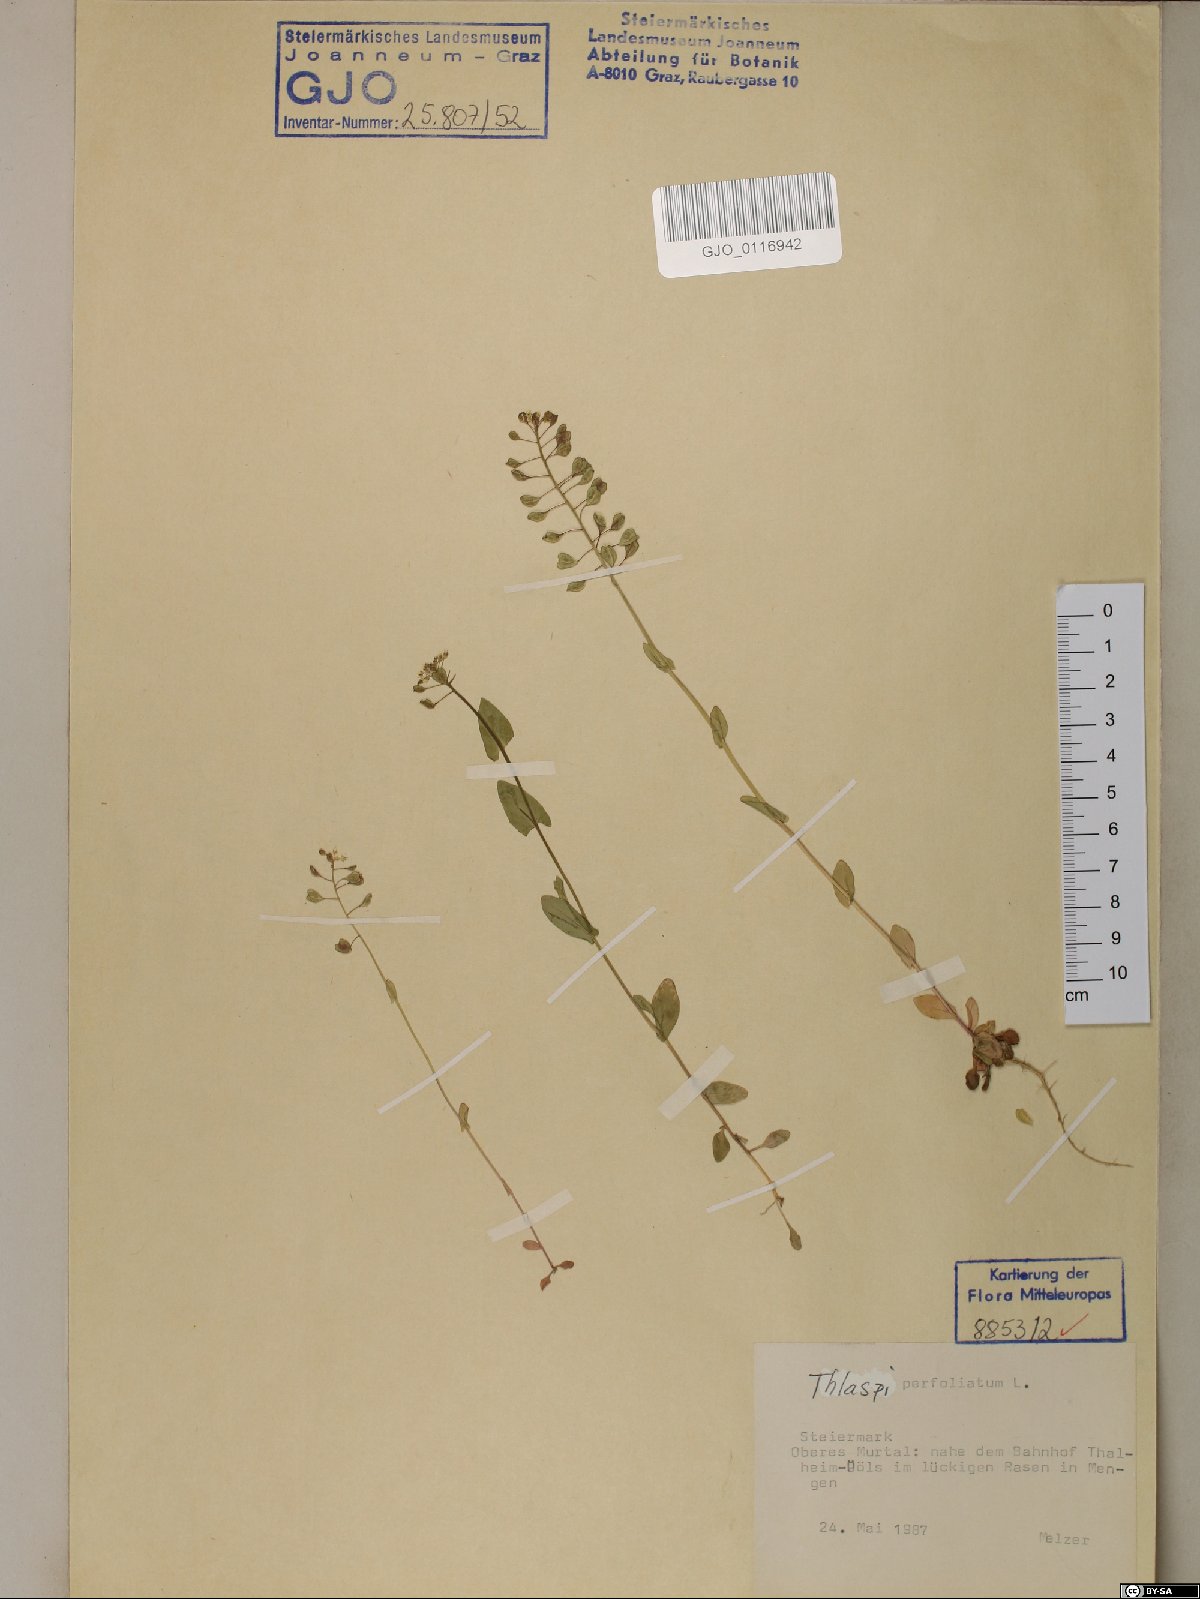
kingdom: Plantae
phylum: Tracheophyta
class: Magnoliopsida
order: Brassicales
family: Brassicaceae
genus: Noccaea
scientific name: Noccaea perfoliata
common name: Perfoliate pennycress
